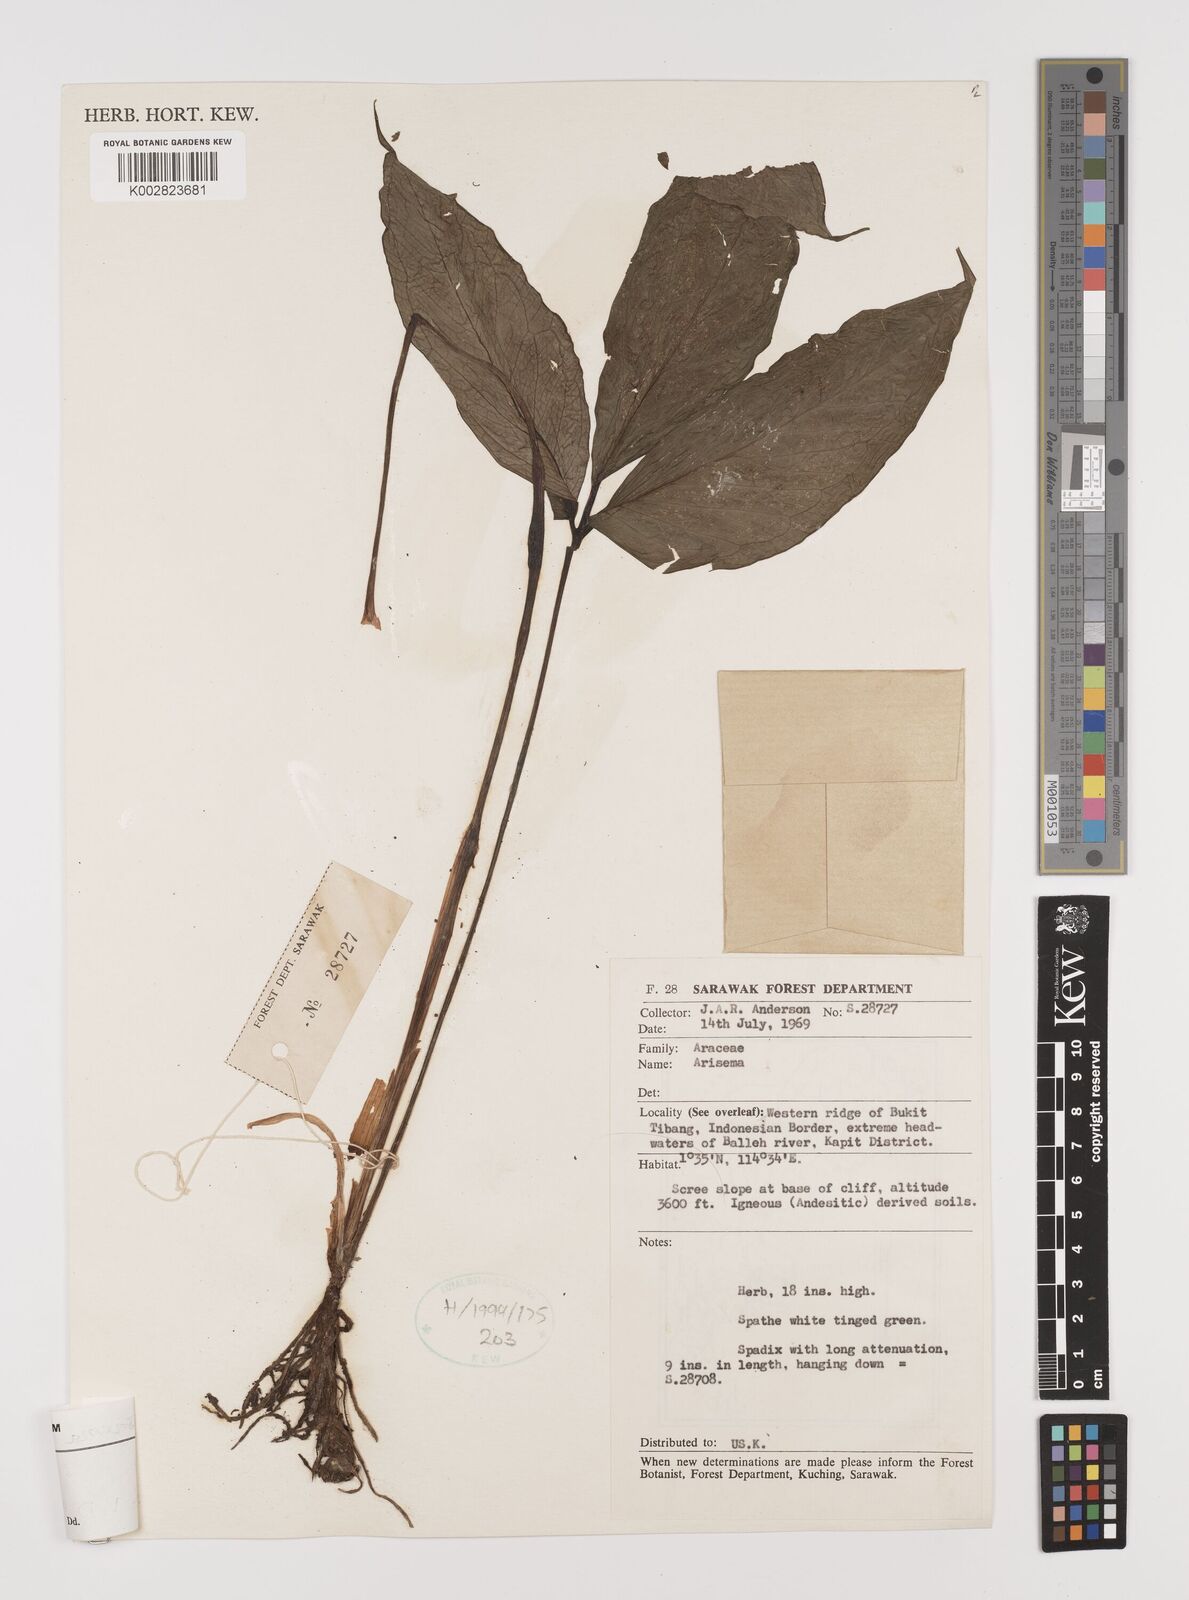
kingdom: Plantae
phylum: Tracheophyta
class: Liliopsida
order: Alismatales
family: Araceae
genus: Arisaema
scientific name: Arisaema filiforme
